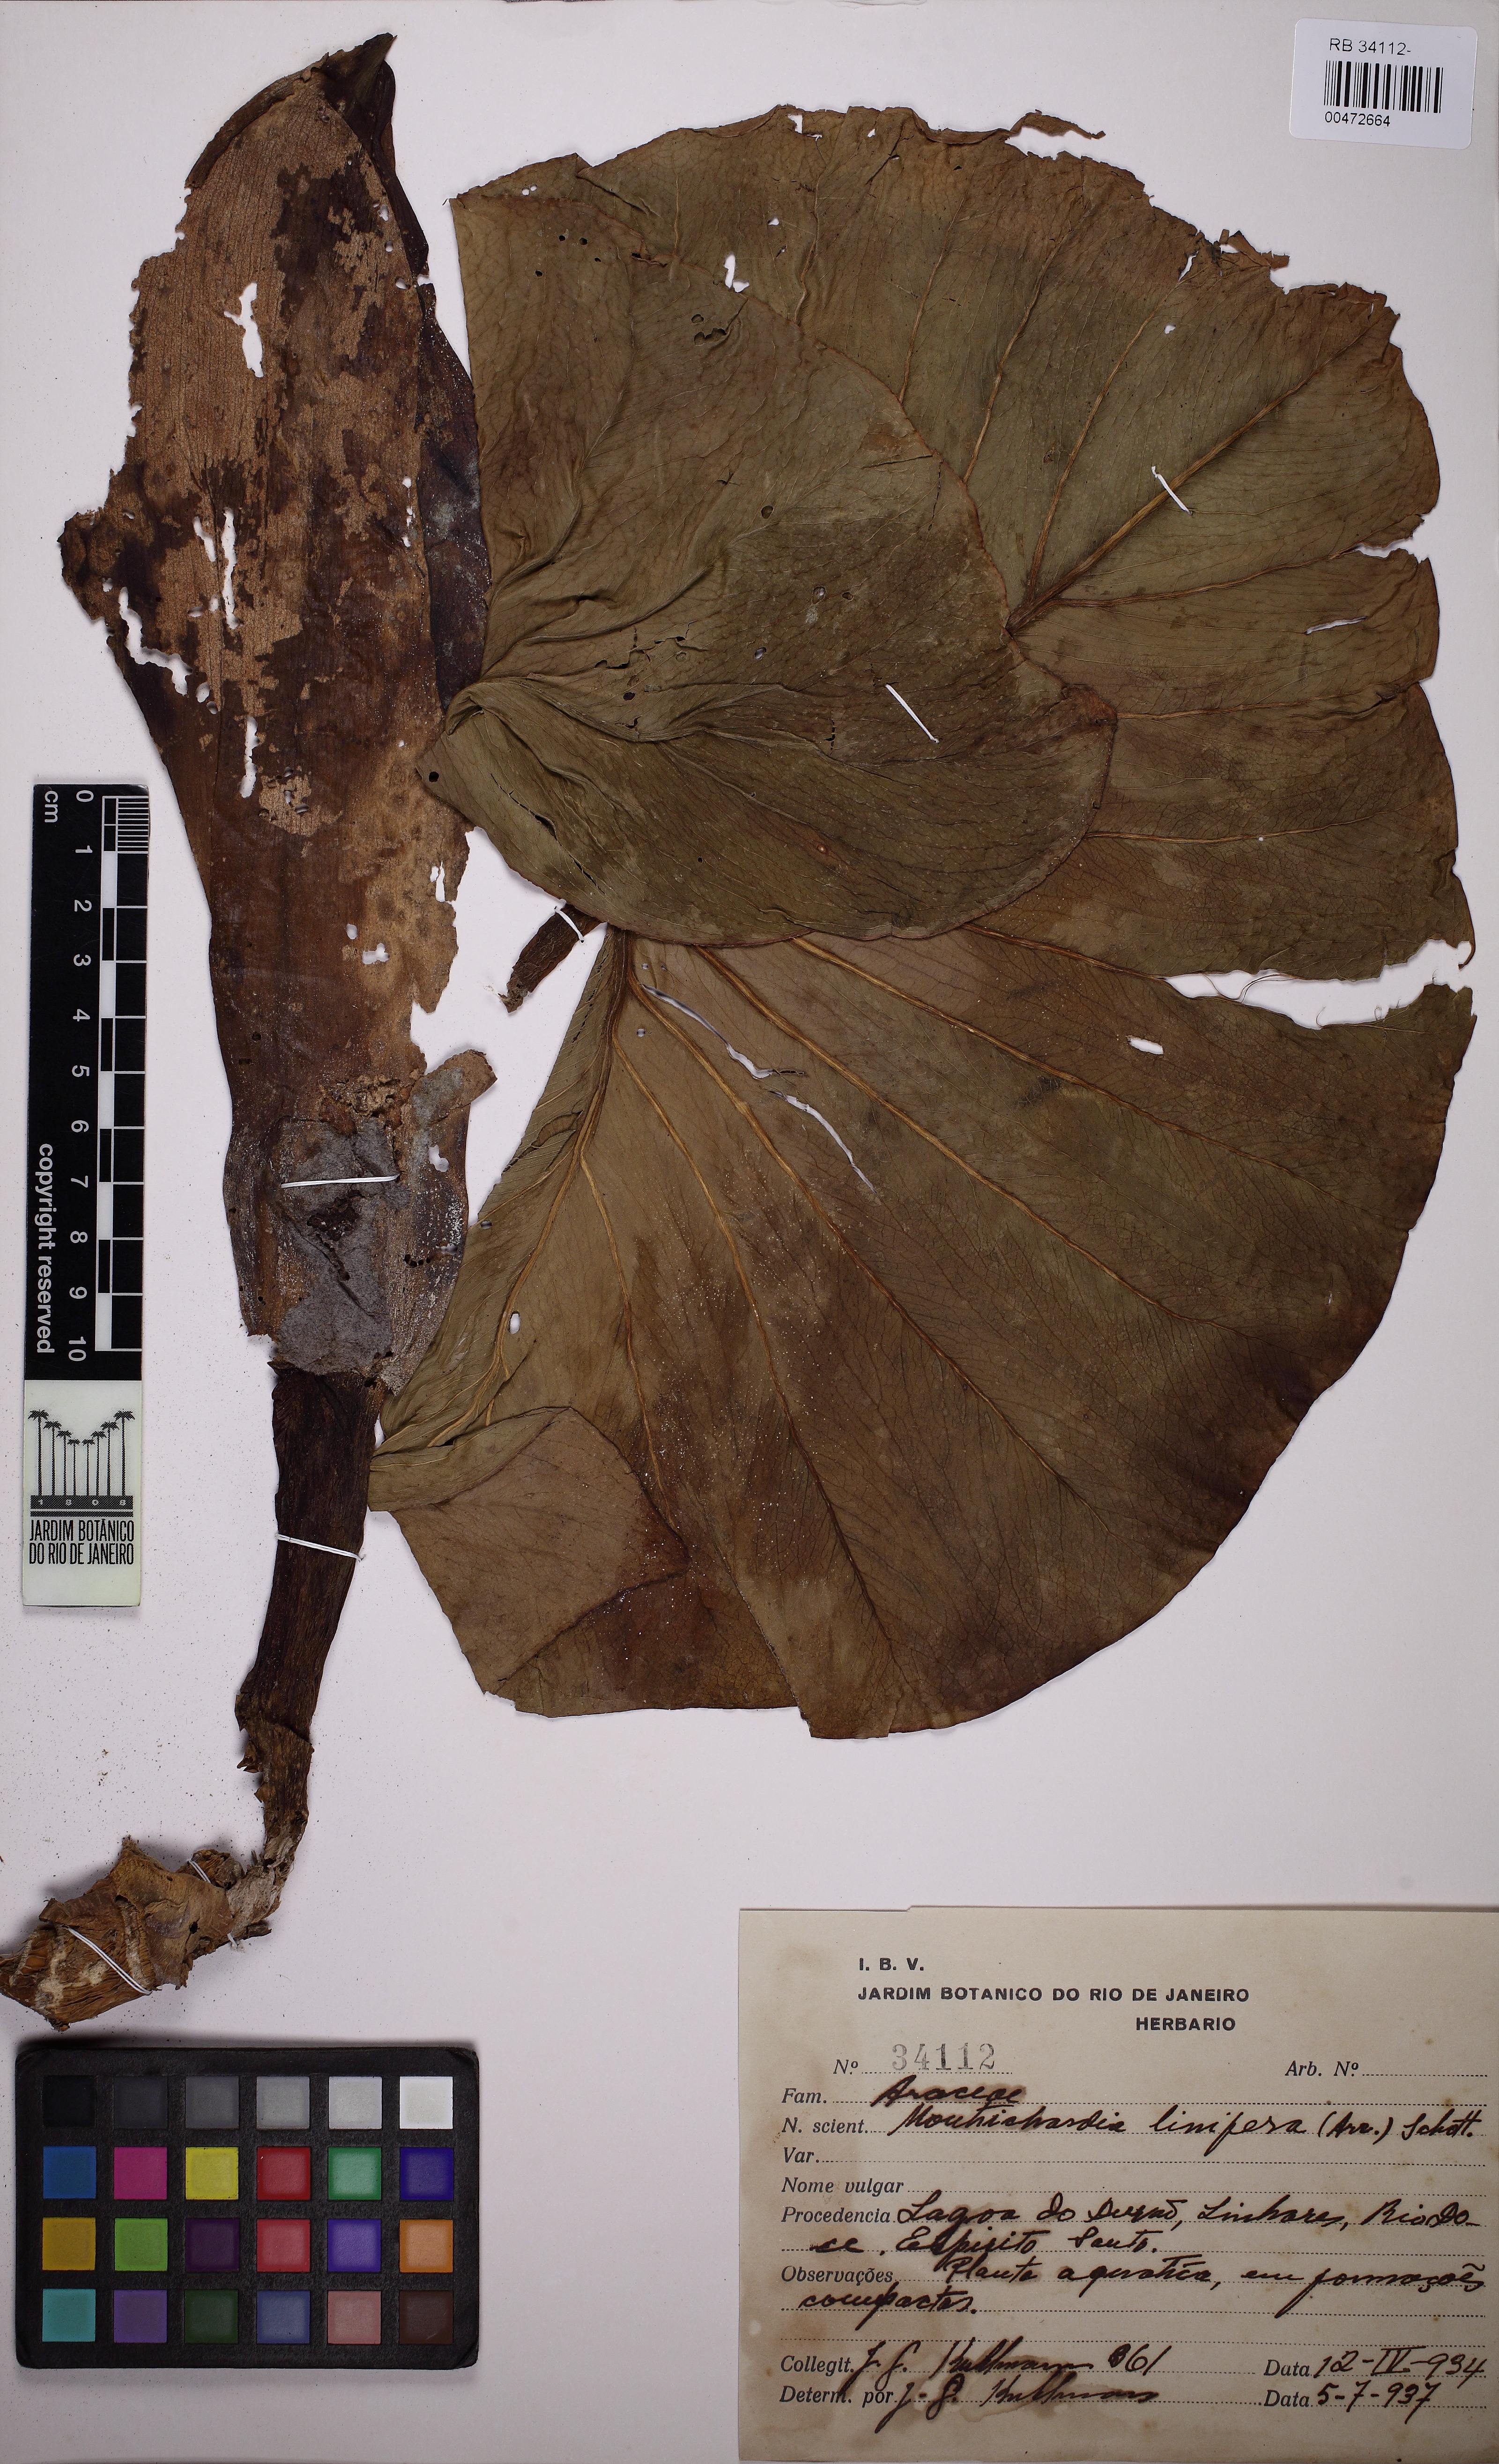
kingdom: Plantae
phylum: Tracheophyta
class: Liliopsida
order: Alismatales
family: Araceae
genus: Montrichardia
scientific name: Montrichardia linifera
